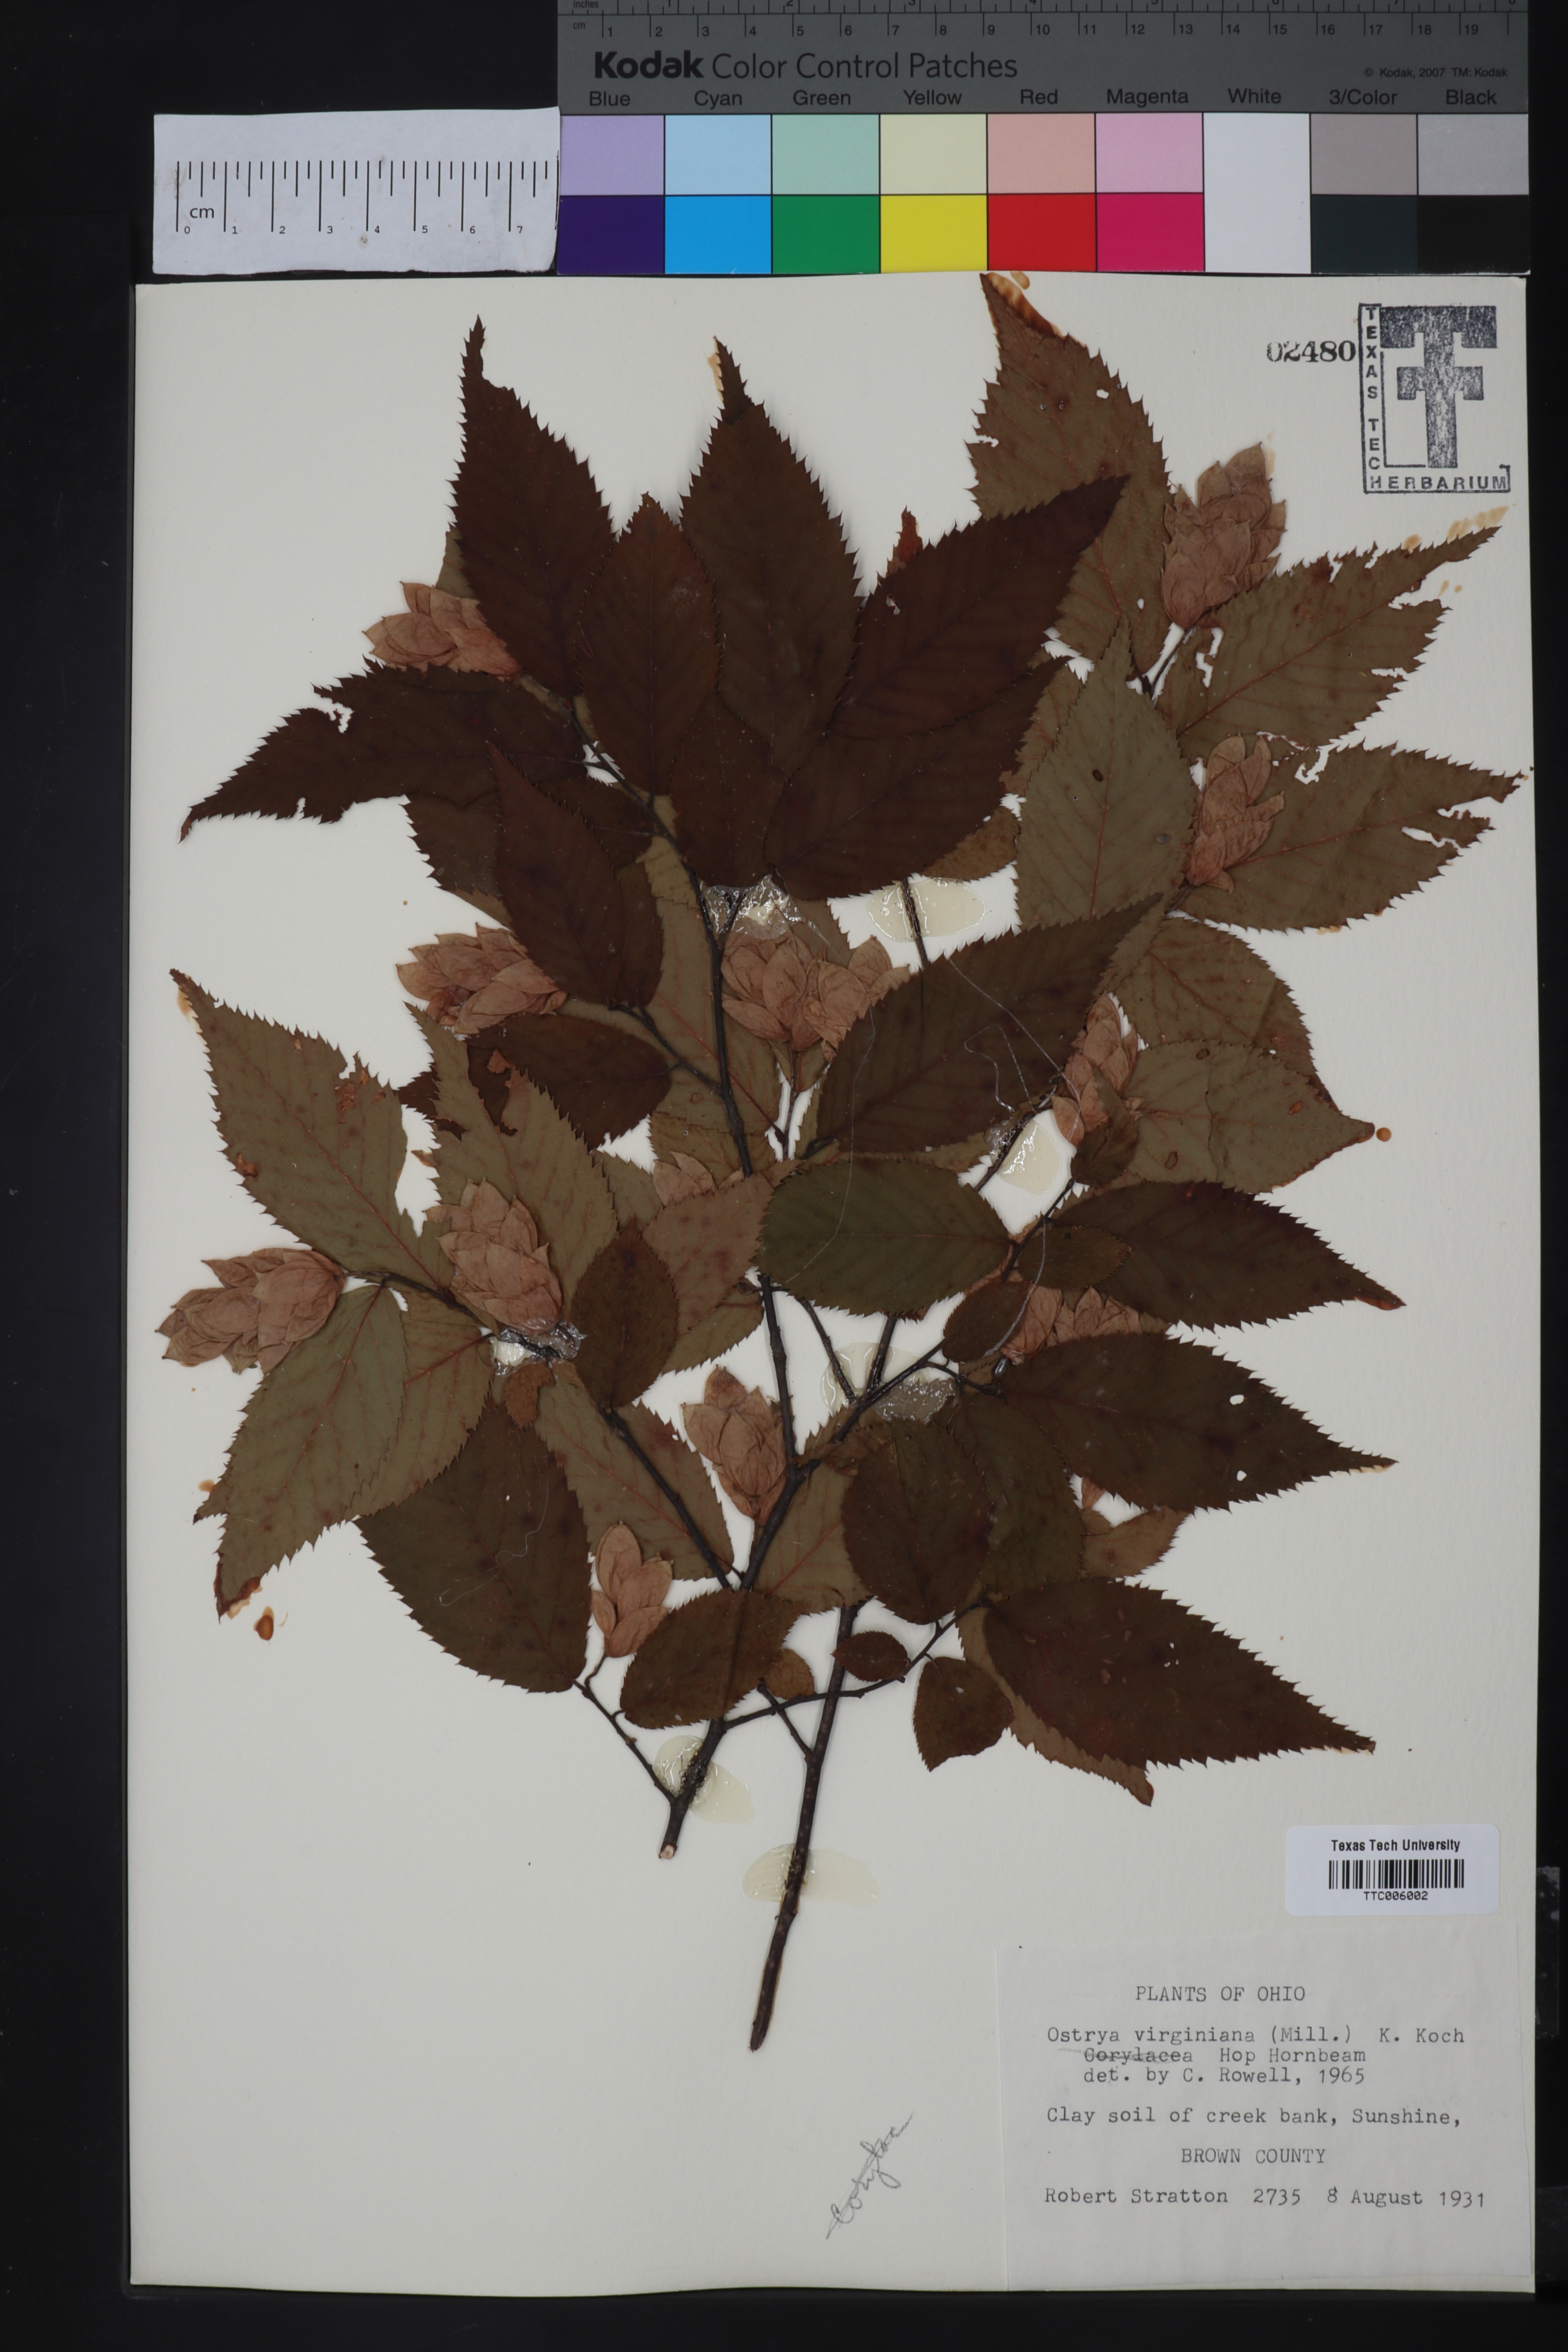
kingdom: Plantae
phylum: Tracheophyta
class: Magnoliopsida
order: Fagales
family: Betulaceae
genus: Ostrya
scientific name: Ostrya virginiana
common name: Ironwood
